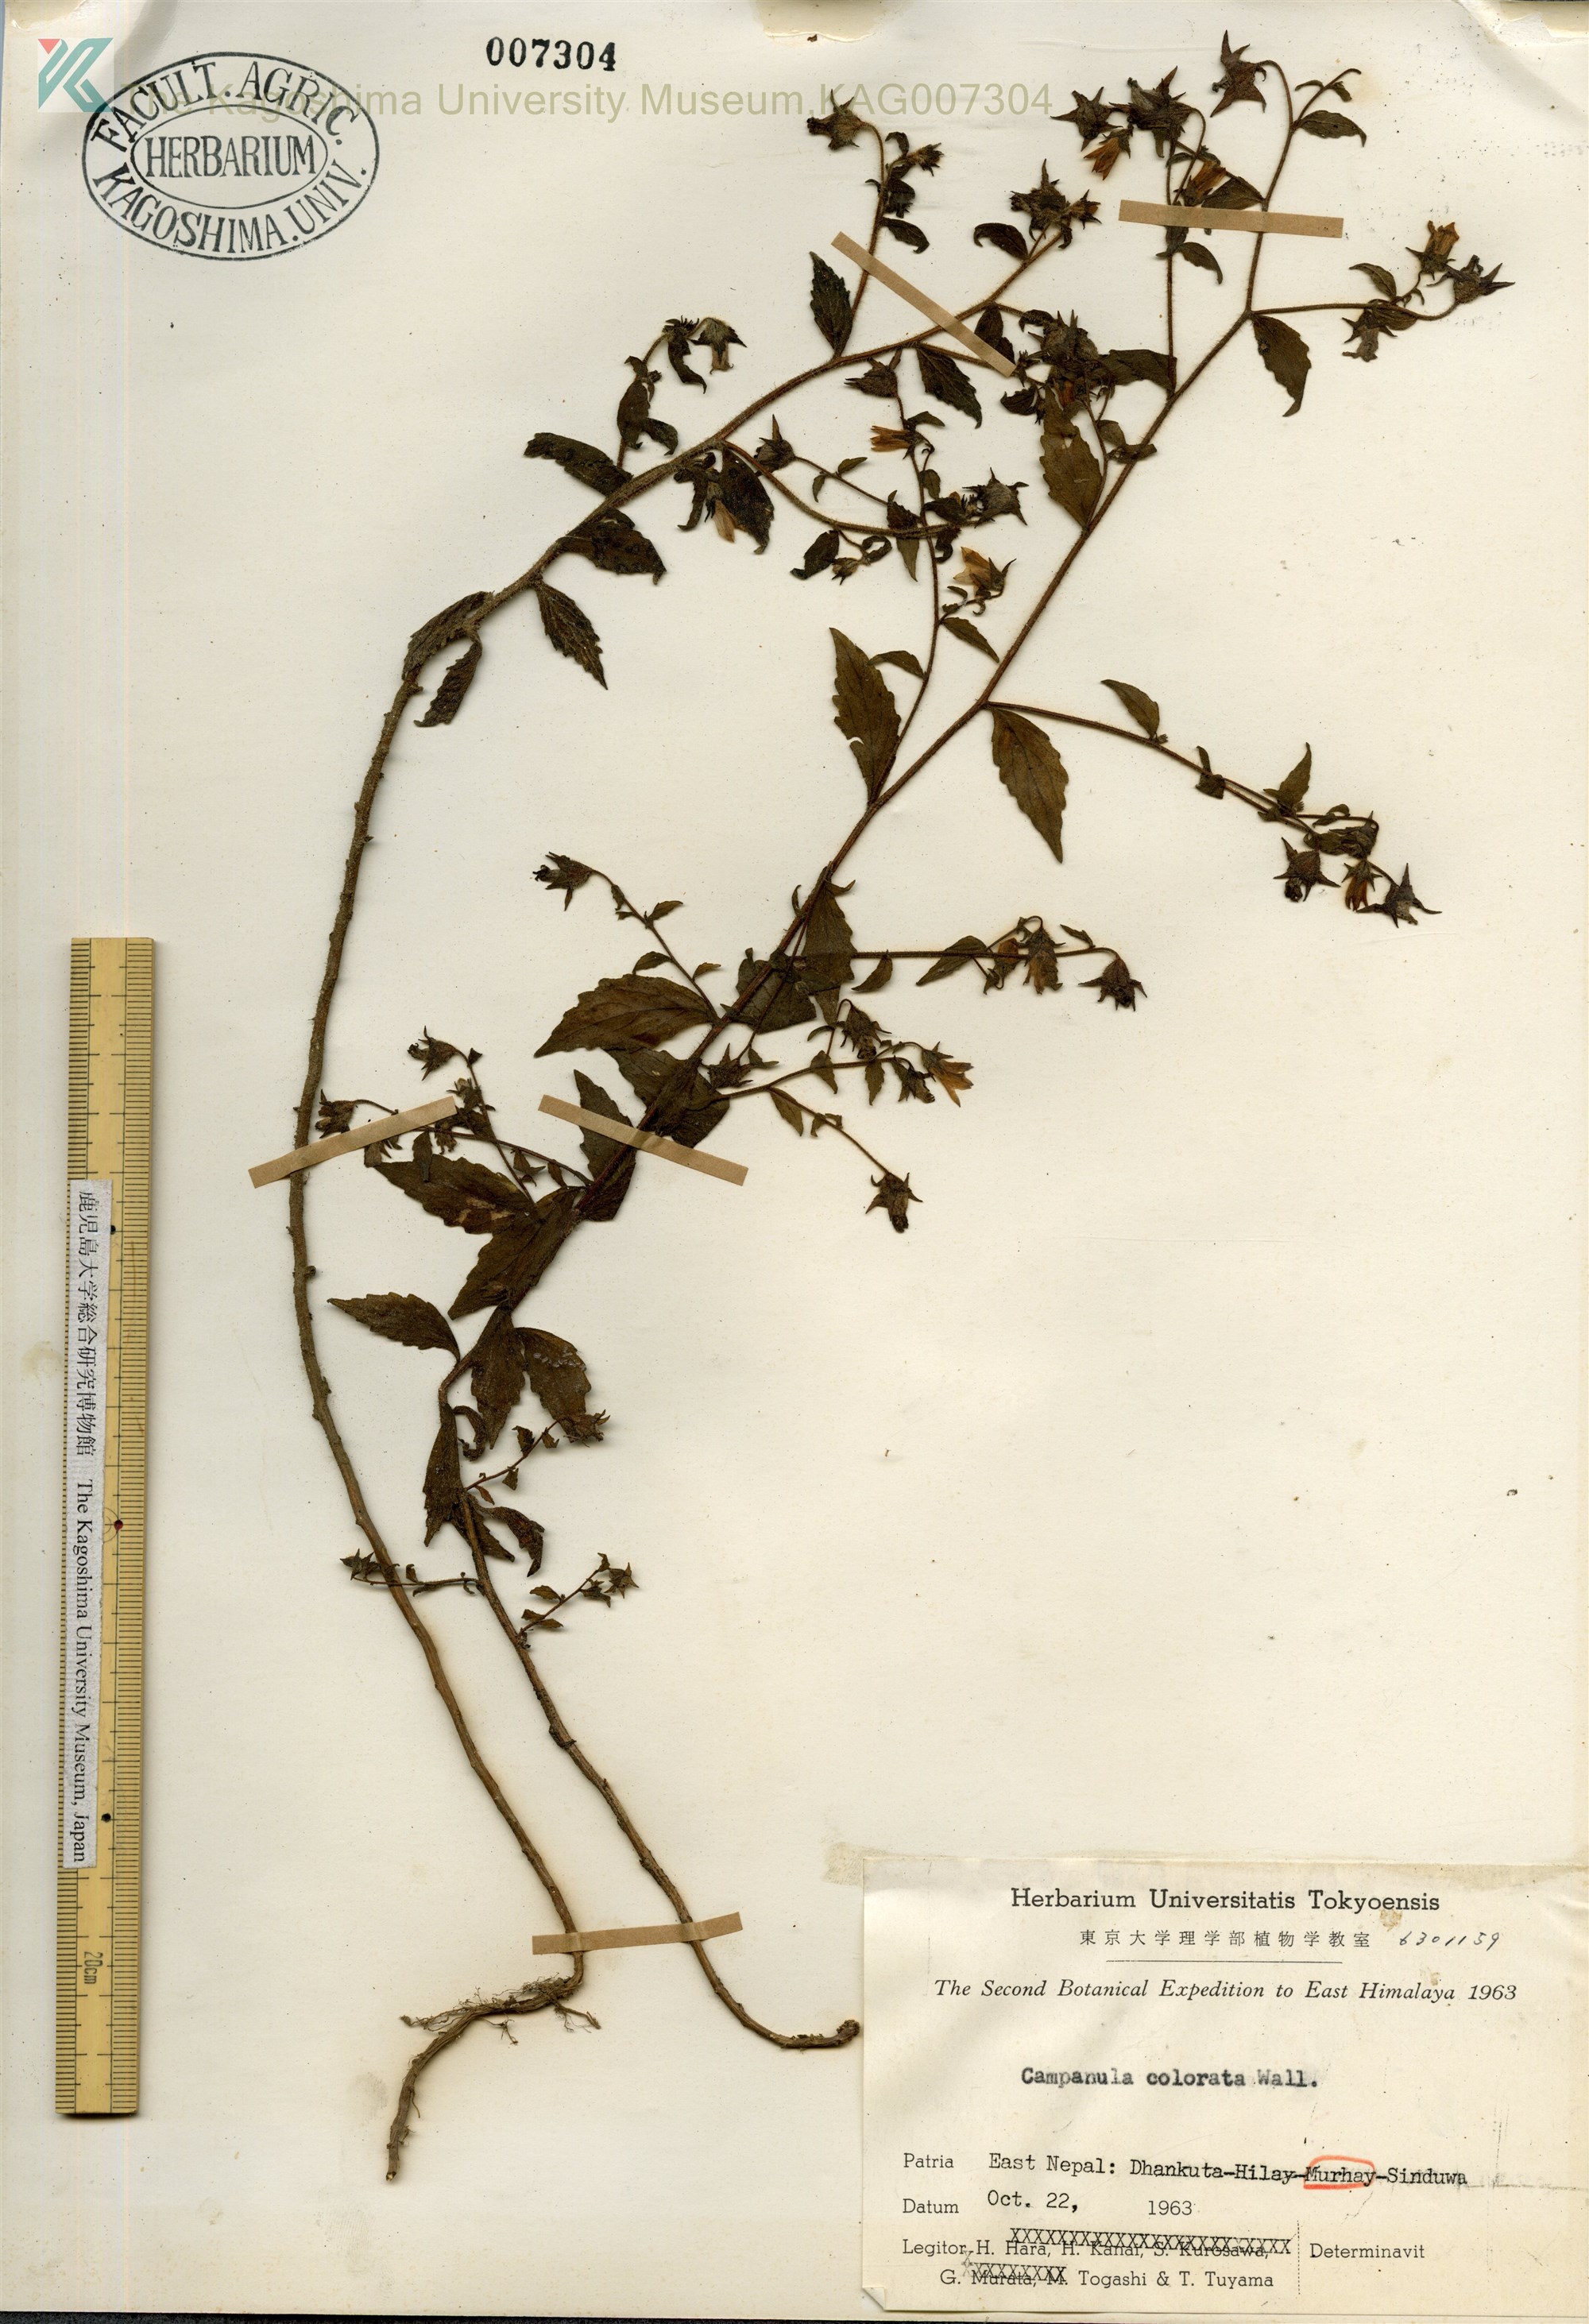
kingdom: Plantae
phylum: Tracheophyta
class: Magnoliopsida
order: Asterales
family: Campanulaceae
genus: Campanula
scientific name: Campanula dasyantha
